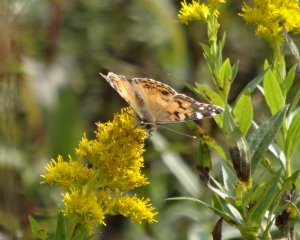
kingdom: Animalia
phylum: Arthropoda
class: Insecta
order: Lepidoptera
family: Nymphalidae
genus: Vanessa
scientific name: Vanessa cardui
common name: Painted Lady
